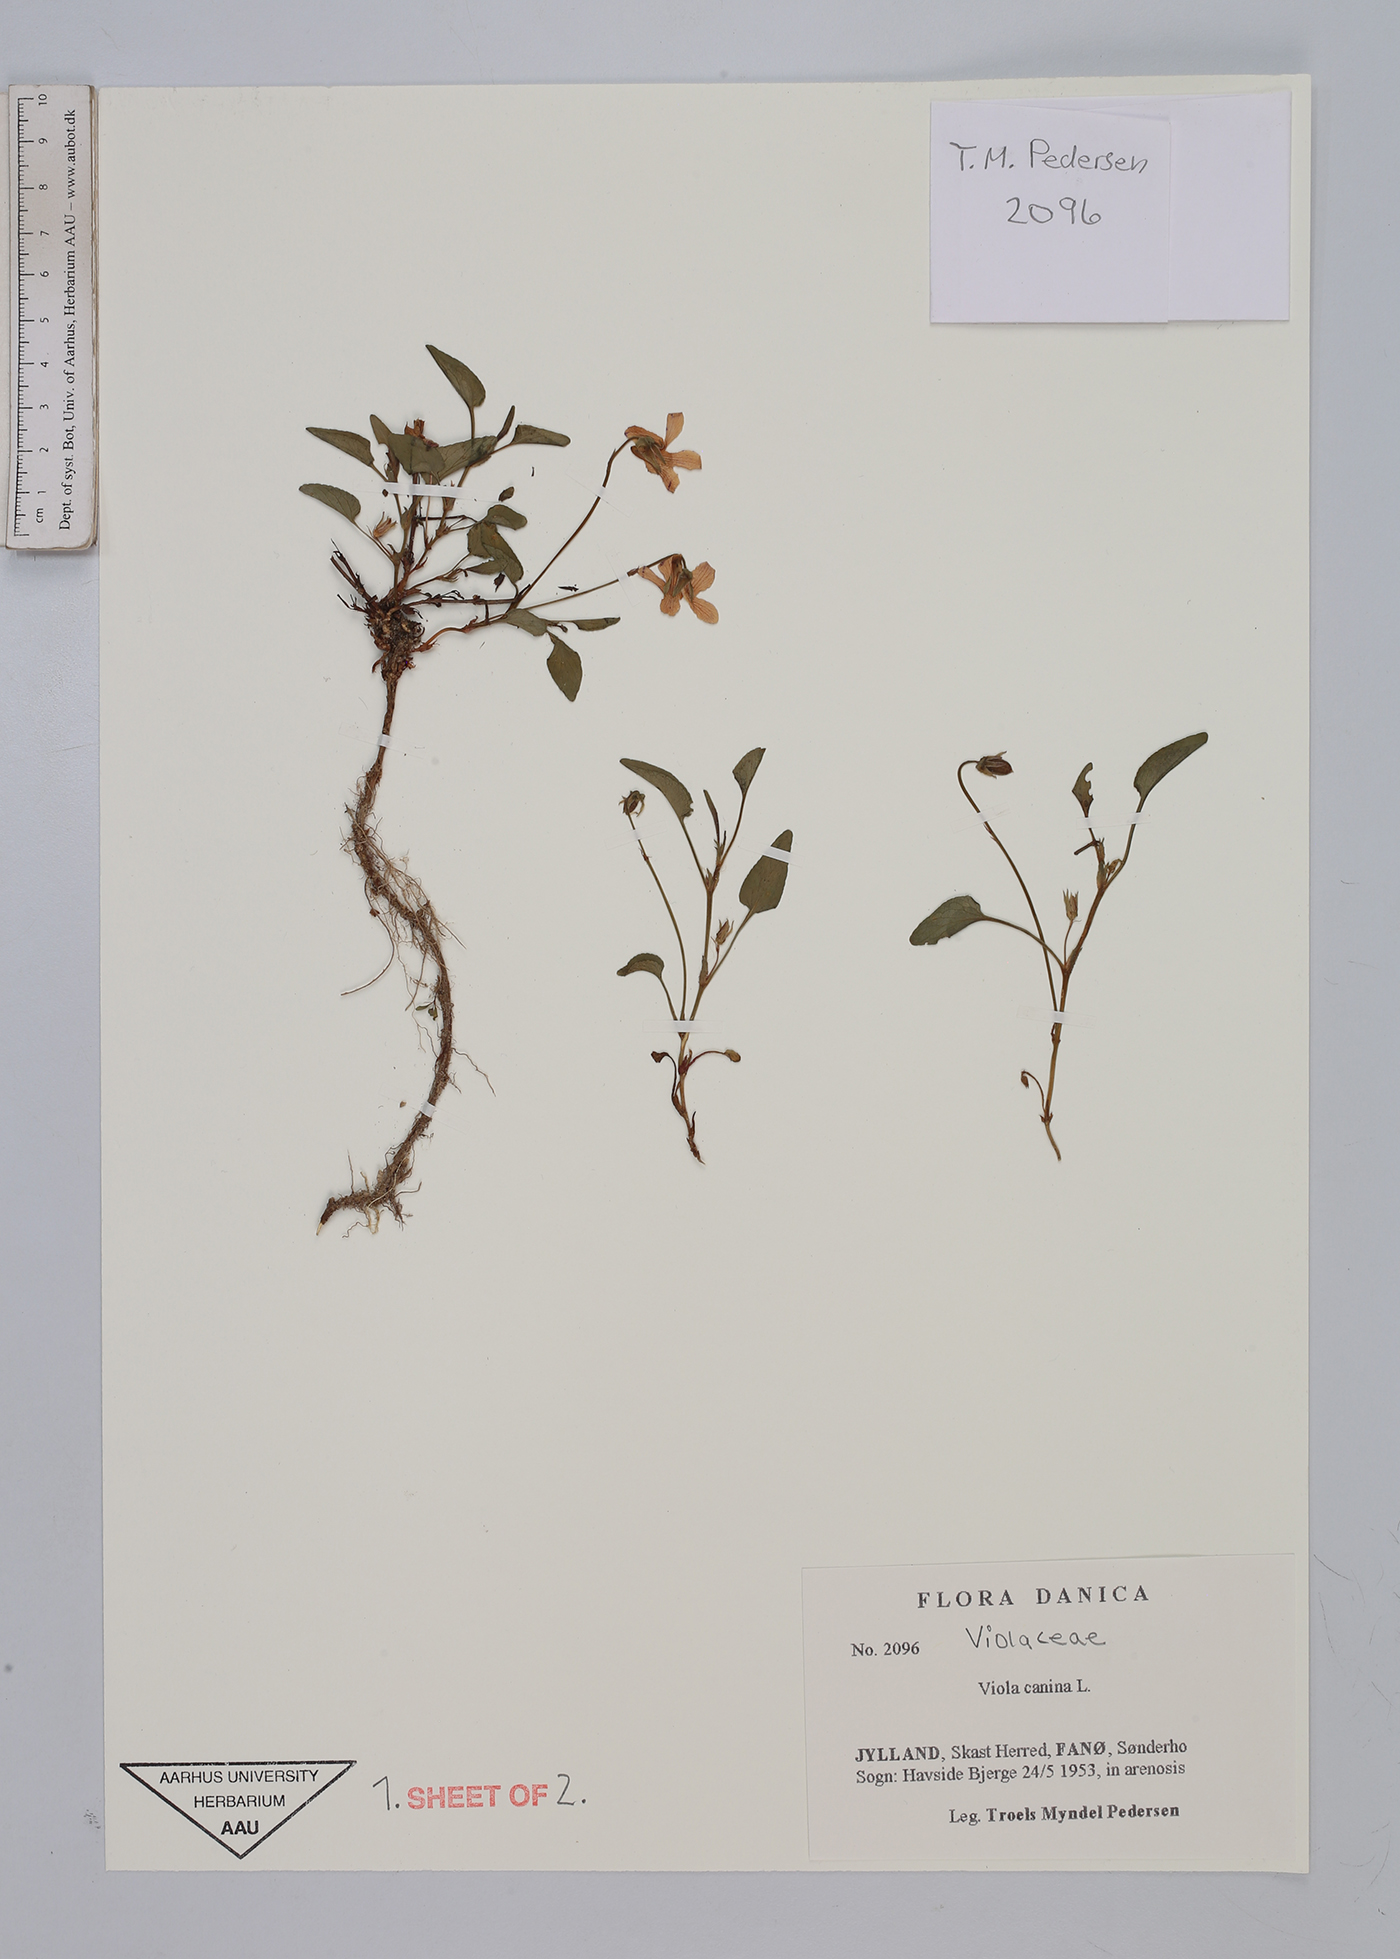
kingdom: Plantae
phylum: Tracheophyta
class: Magnoliopsida
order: Malpighiales
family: Violaceae
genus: Viola
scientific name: Viola canina
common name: Heath dog-violet
